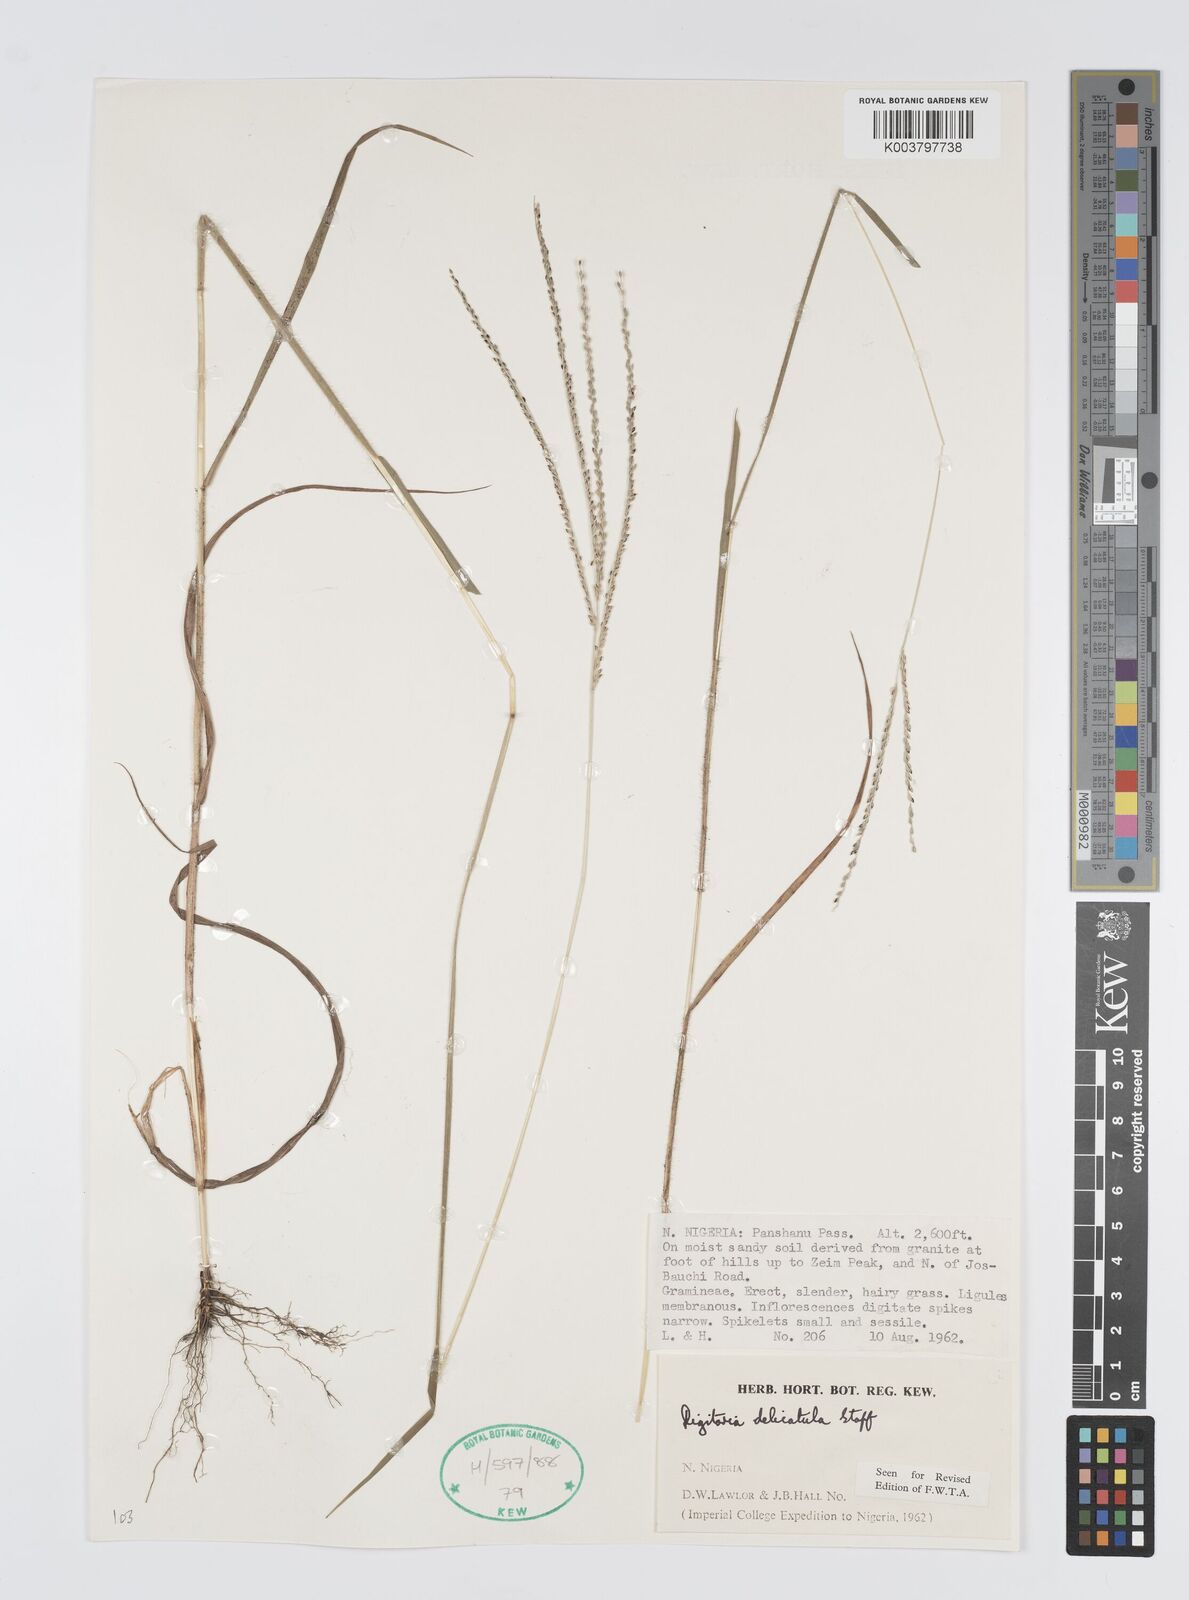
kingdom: Plantae
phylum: Tracheophyta
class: Liliopsida
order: Poales
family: Poaceae
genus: Digitaria
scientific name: Digitaria delicatula
